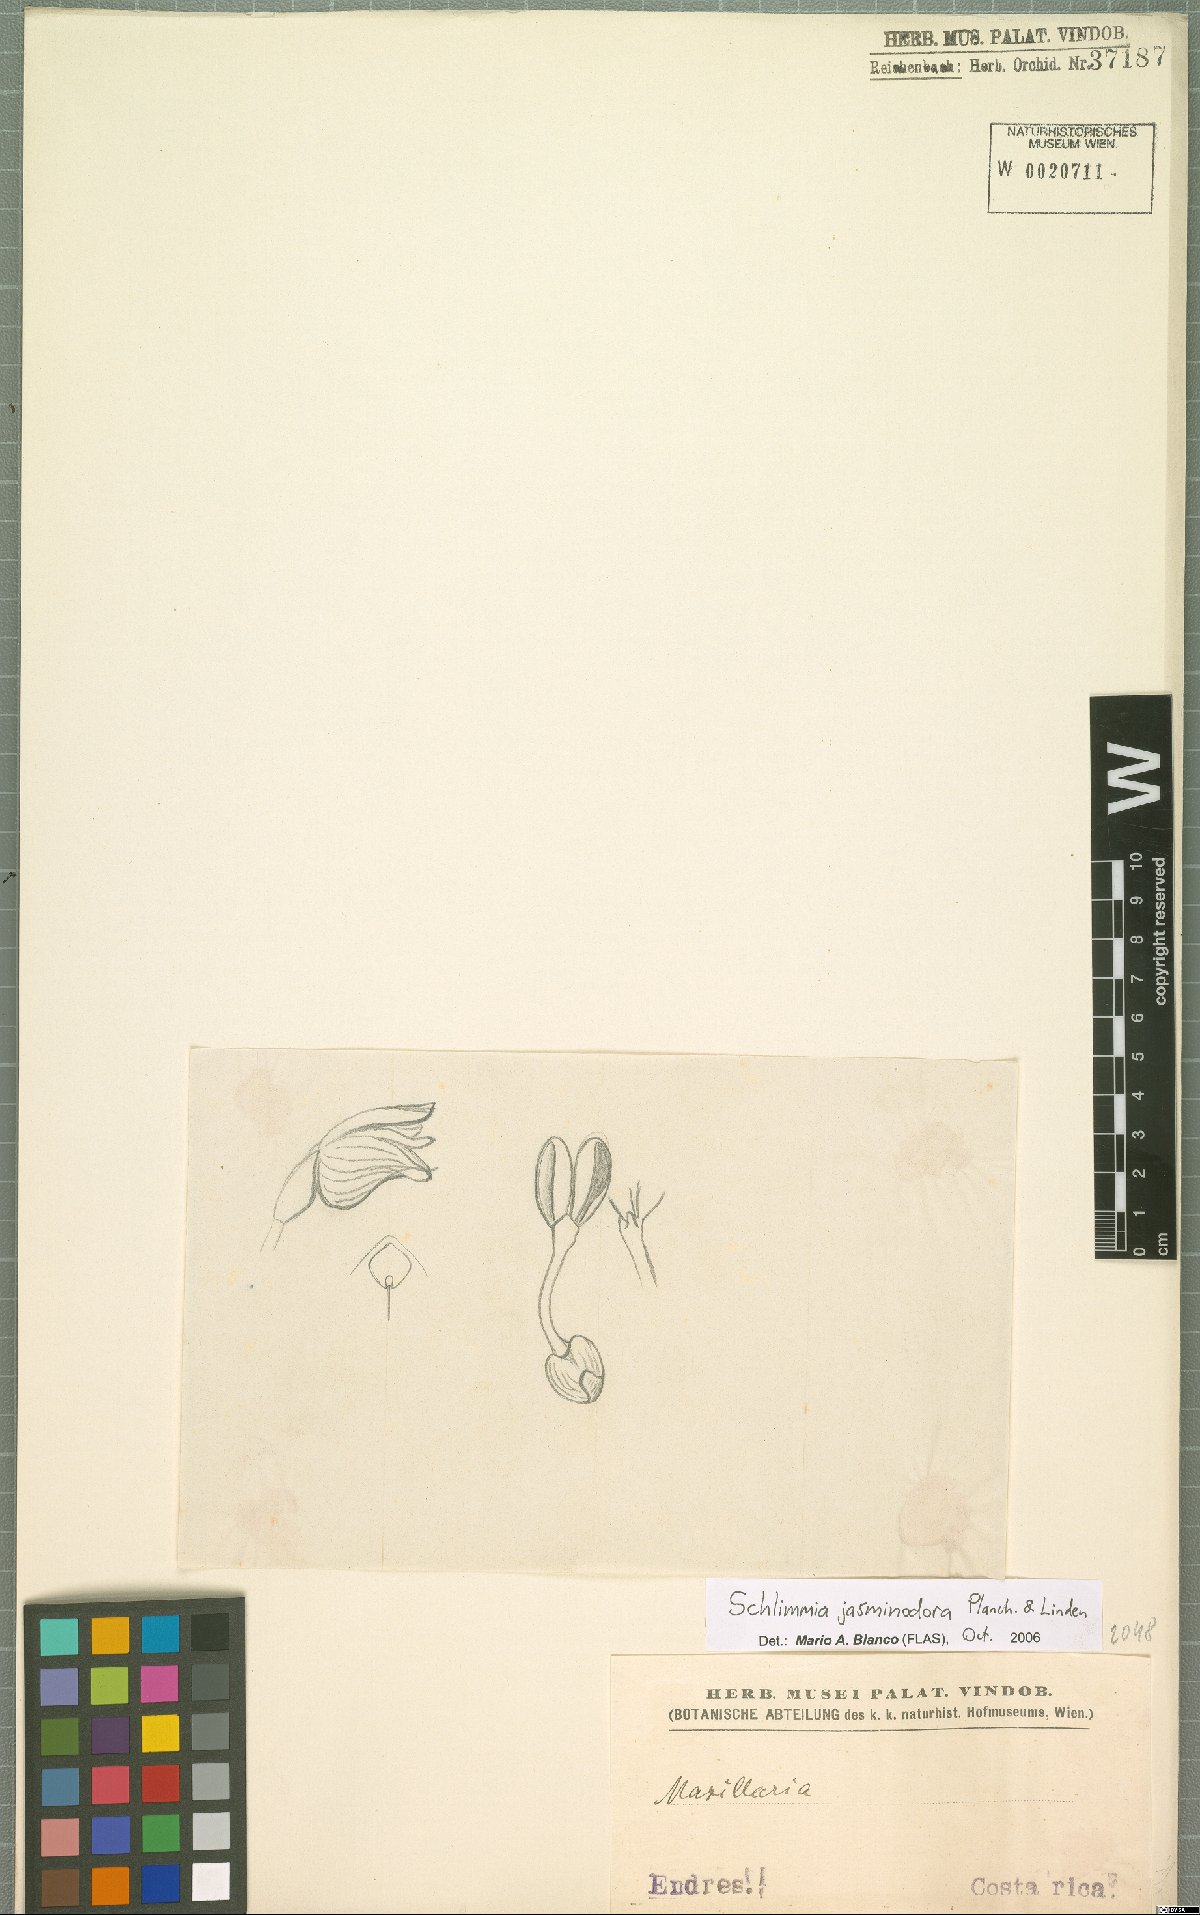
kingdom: Plantae
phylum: Tracheophyta
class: Liliopsida
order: Asparagales
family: Orchidaceae
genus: Schlimia
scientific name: Schlimia jasminodora
